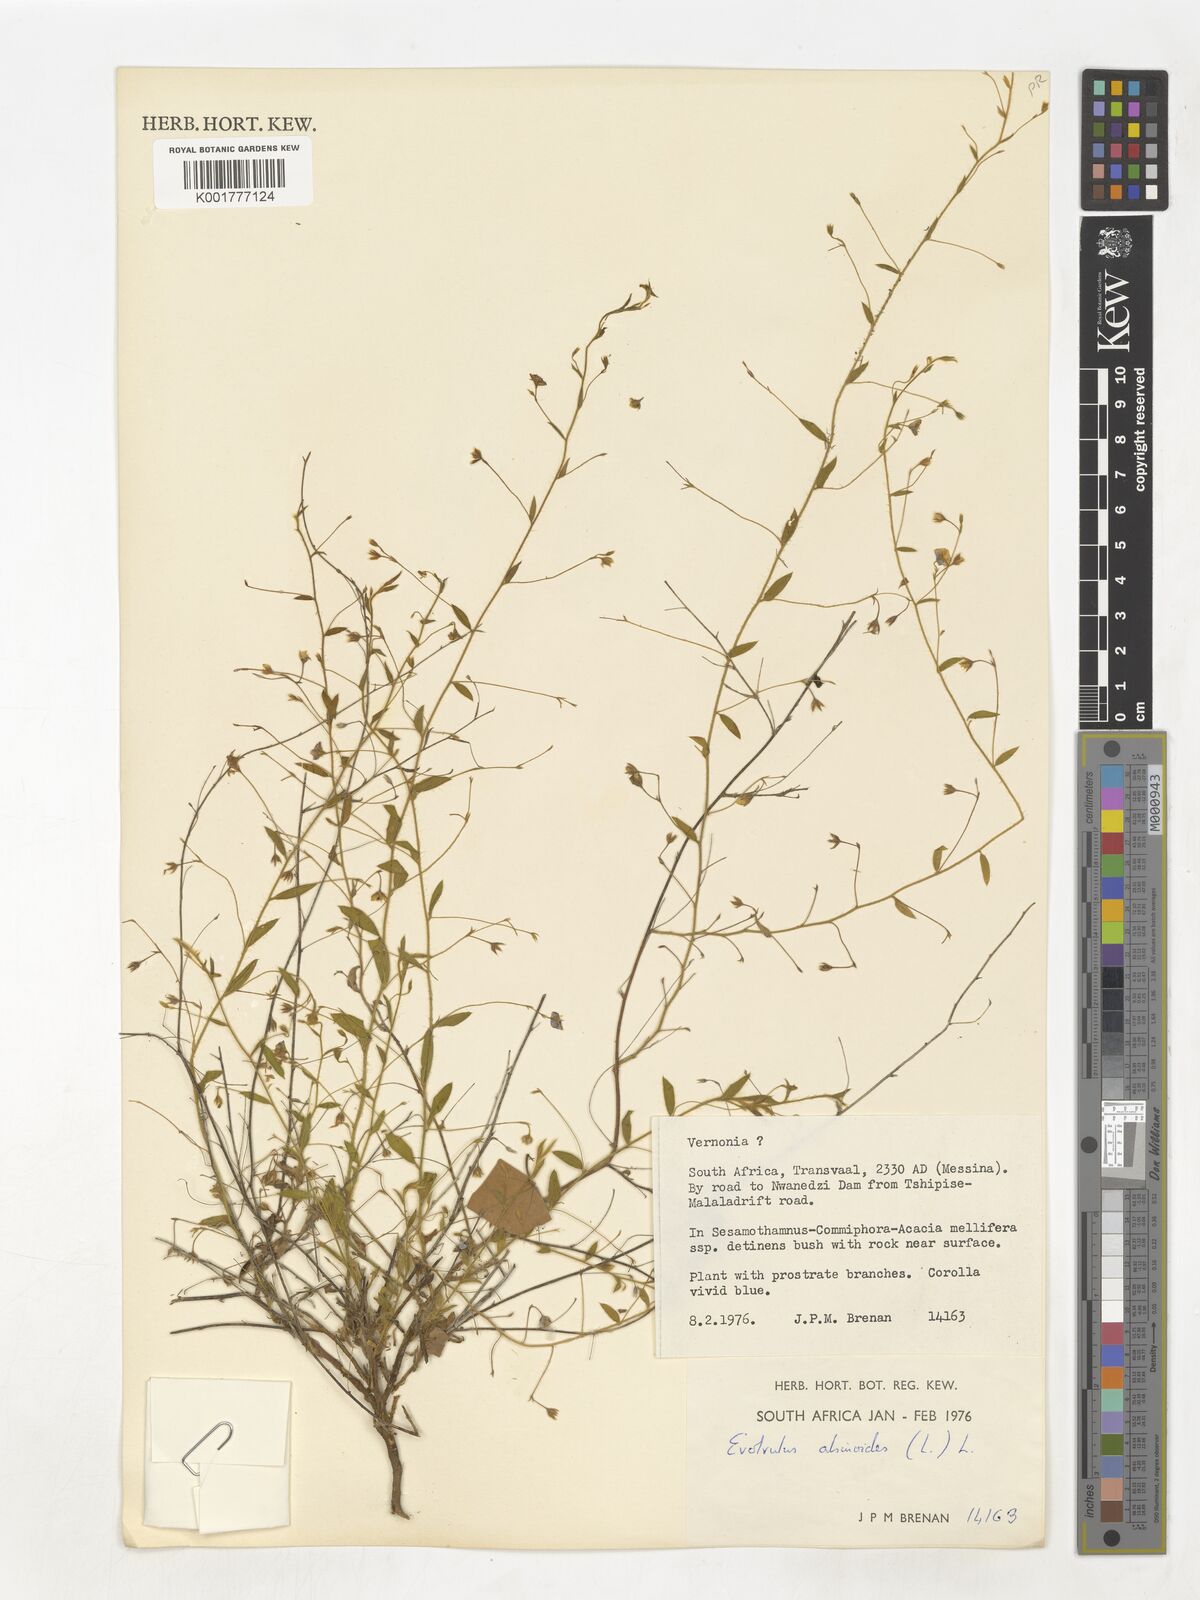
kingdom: Plantae
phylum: Tracheophyta
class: Magnoliopsida
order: Solanales
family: Convolvulaceae
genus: Evolvulus
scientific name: Evolvulus alsinoides
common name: Slender dwarf morning-glory
